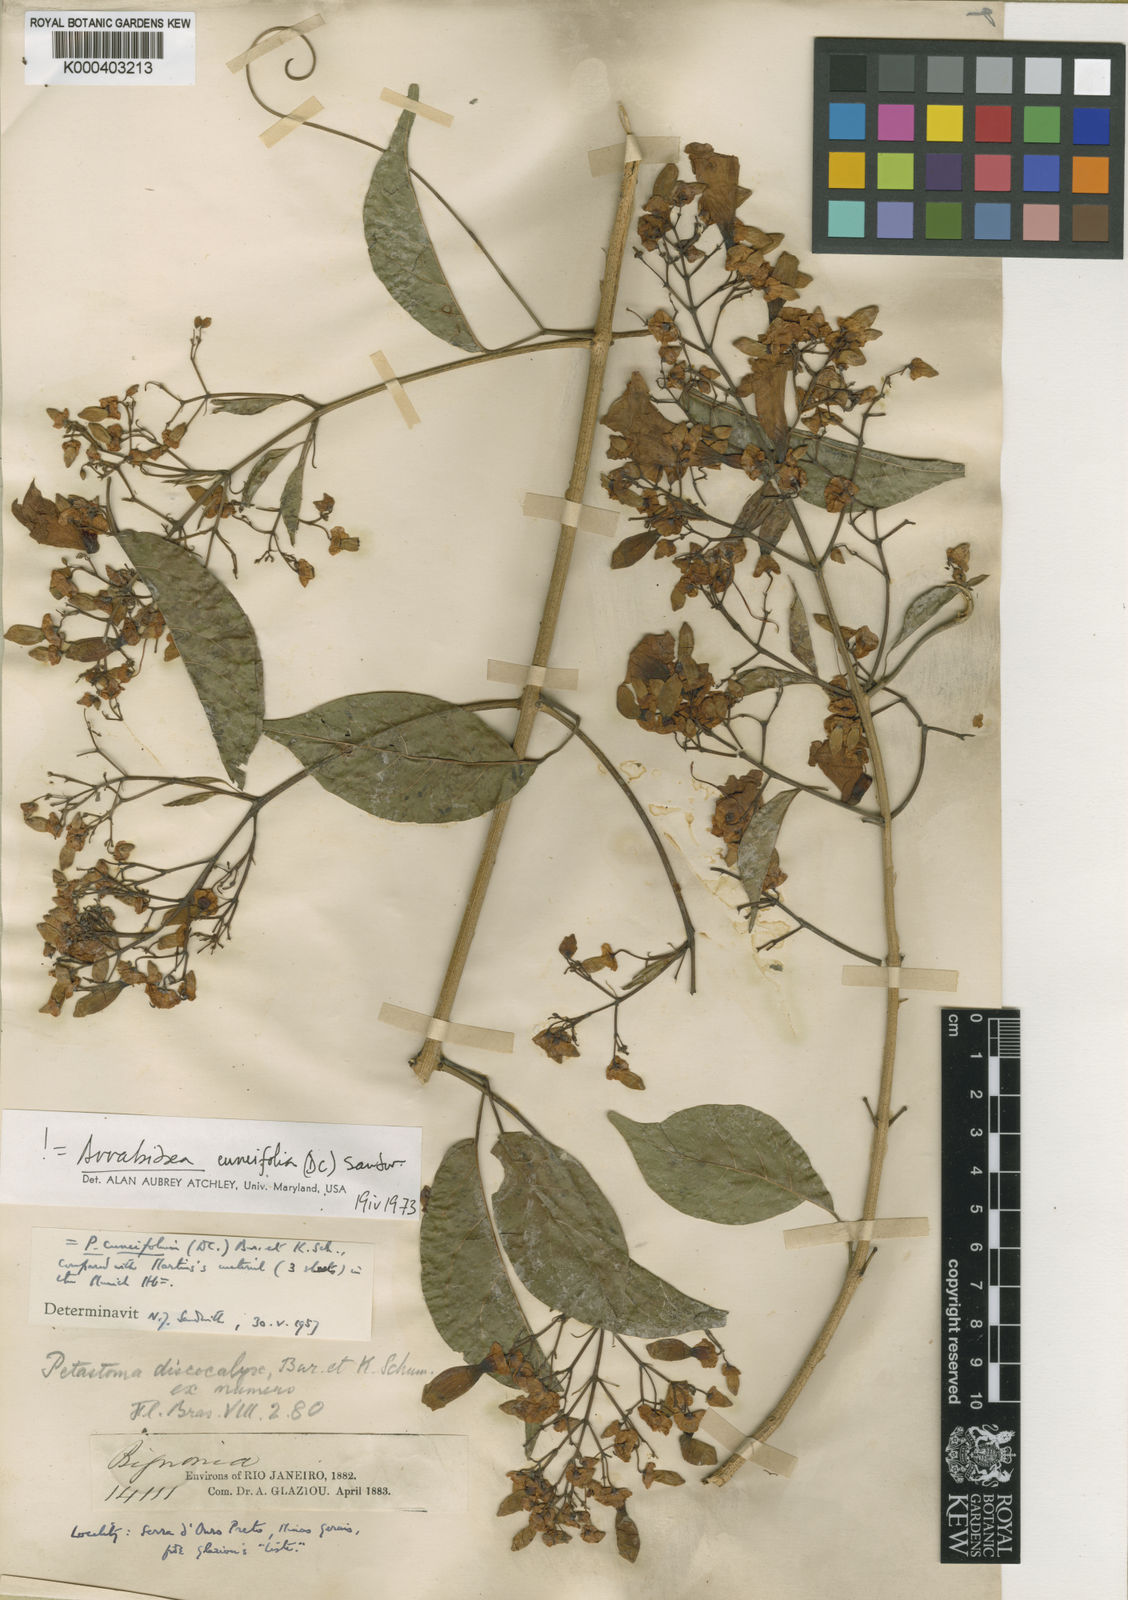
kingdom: Plantae
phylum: Tracheophyta
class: Magnoliopsida
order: Lamiales
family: Bignoniaceae
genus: Fridericia
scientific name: Fridericia cuneifolia
